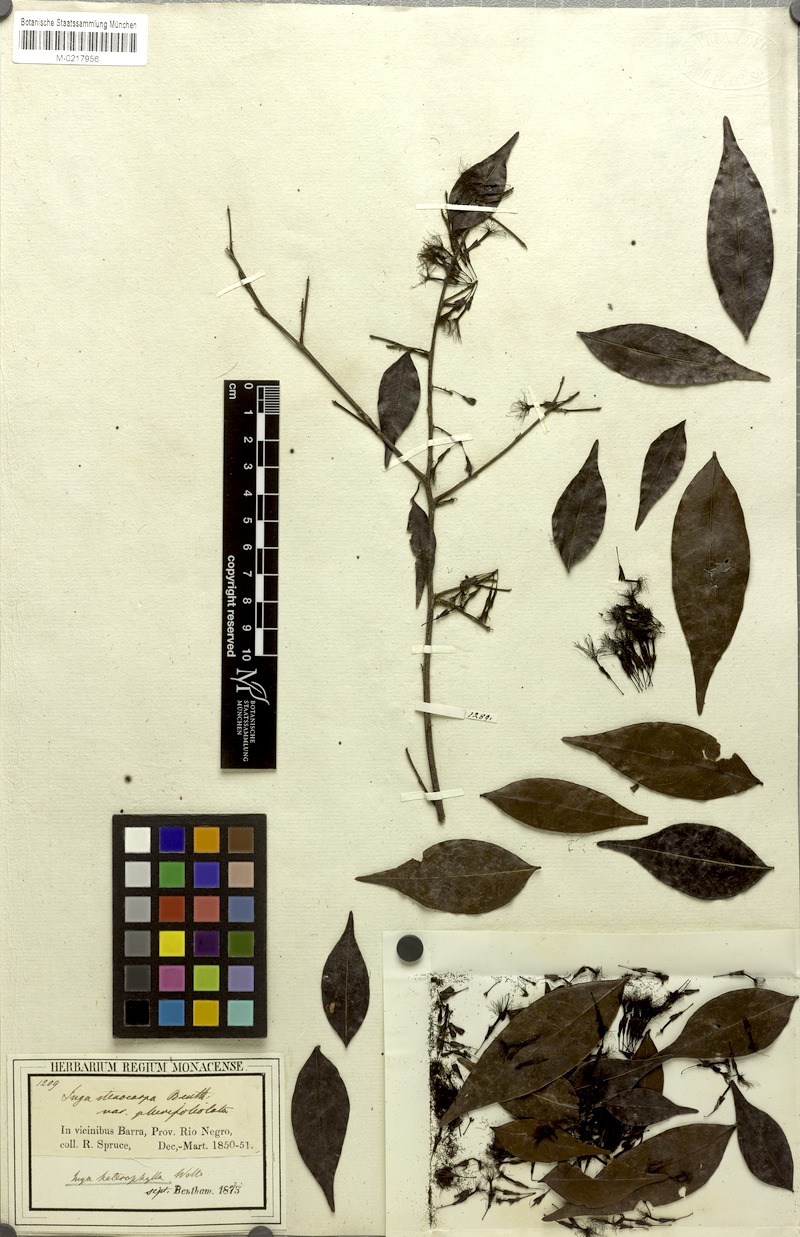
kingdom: Plantae
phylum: Tracheophyta
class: Magnoliopsida
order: Fabales
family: Fabaceae
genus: Inga
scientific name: Inga heterophylla
